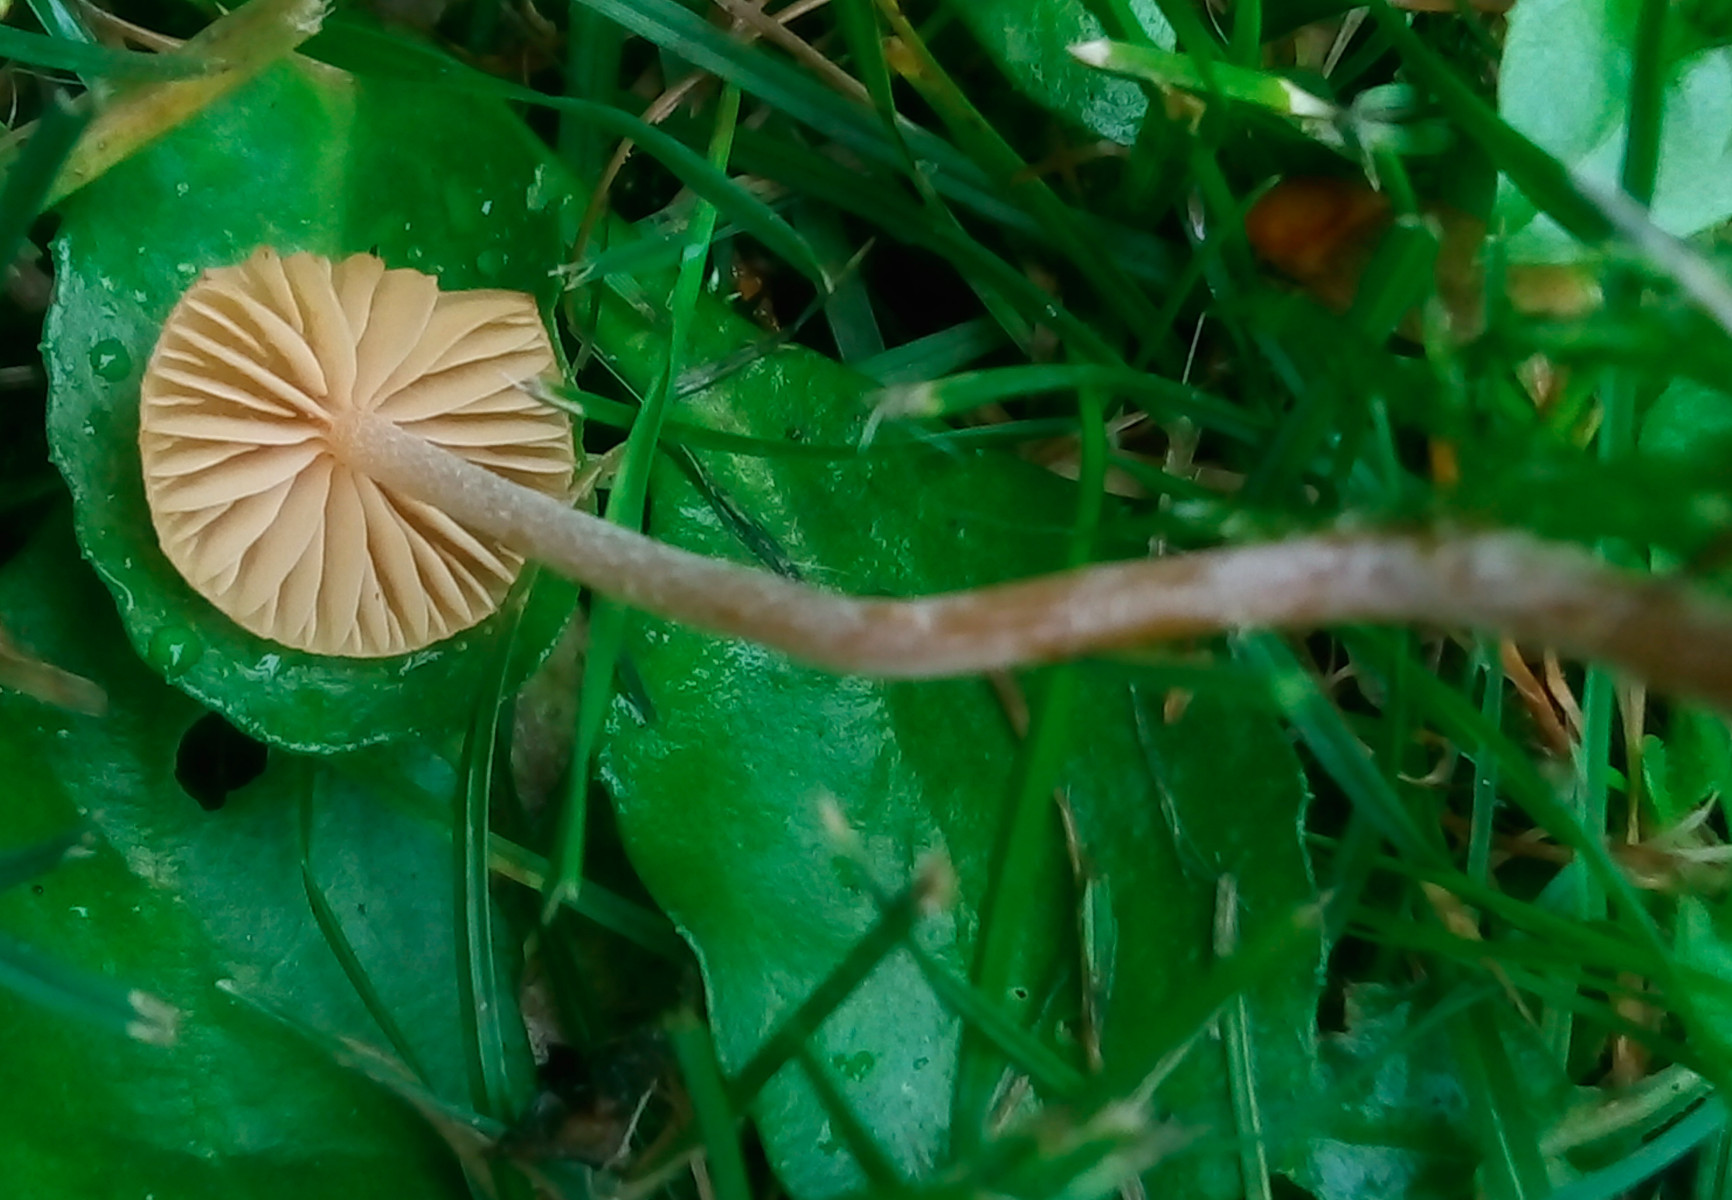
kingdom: Fungi
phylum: Basidiomycota
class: Agaricomycetes
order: Agaricales
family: Hymenogastraceae
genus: Galerina
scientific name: Galerina
